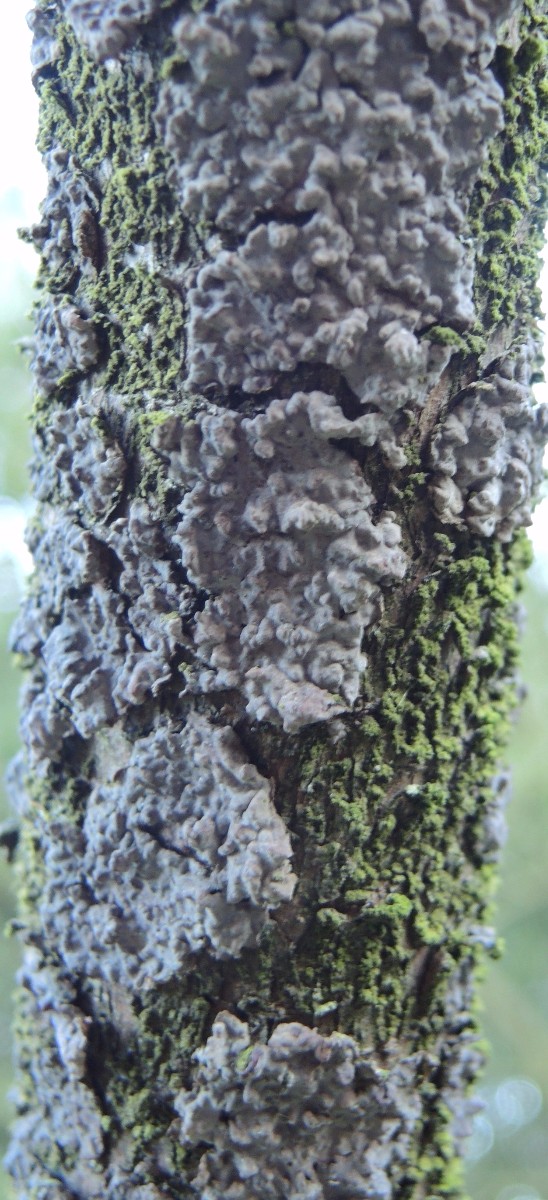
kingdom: Fungi
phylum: Basidiomycota
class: Agaricomycetes
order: Russulales
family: Peniophoraceae
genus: Peniophora
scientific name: Peniophora pini
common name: fyrre-voksskind
